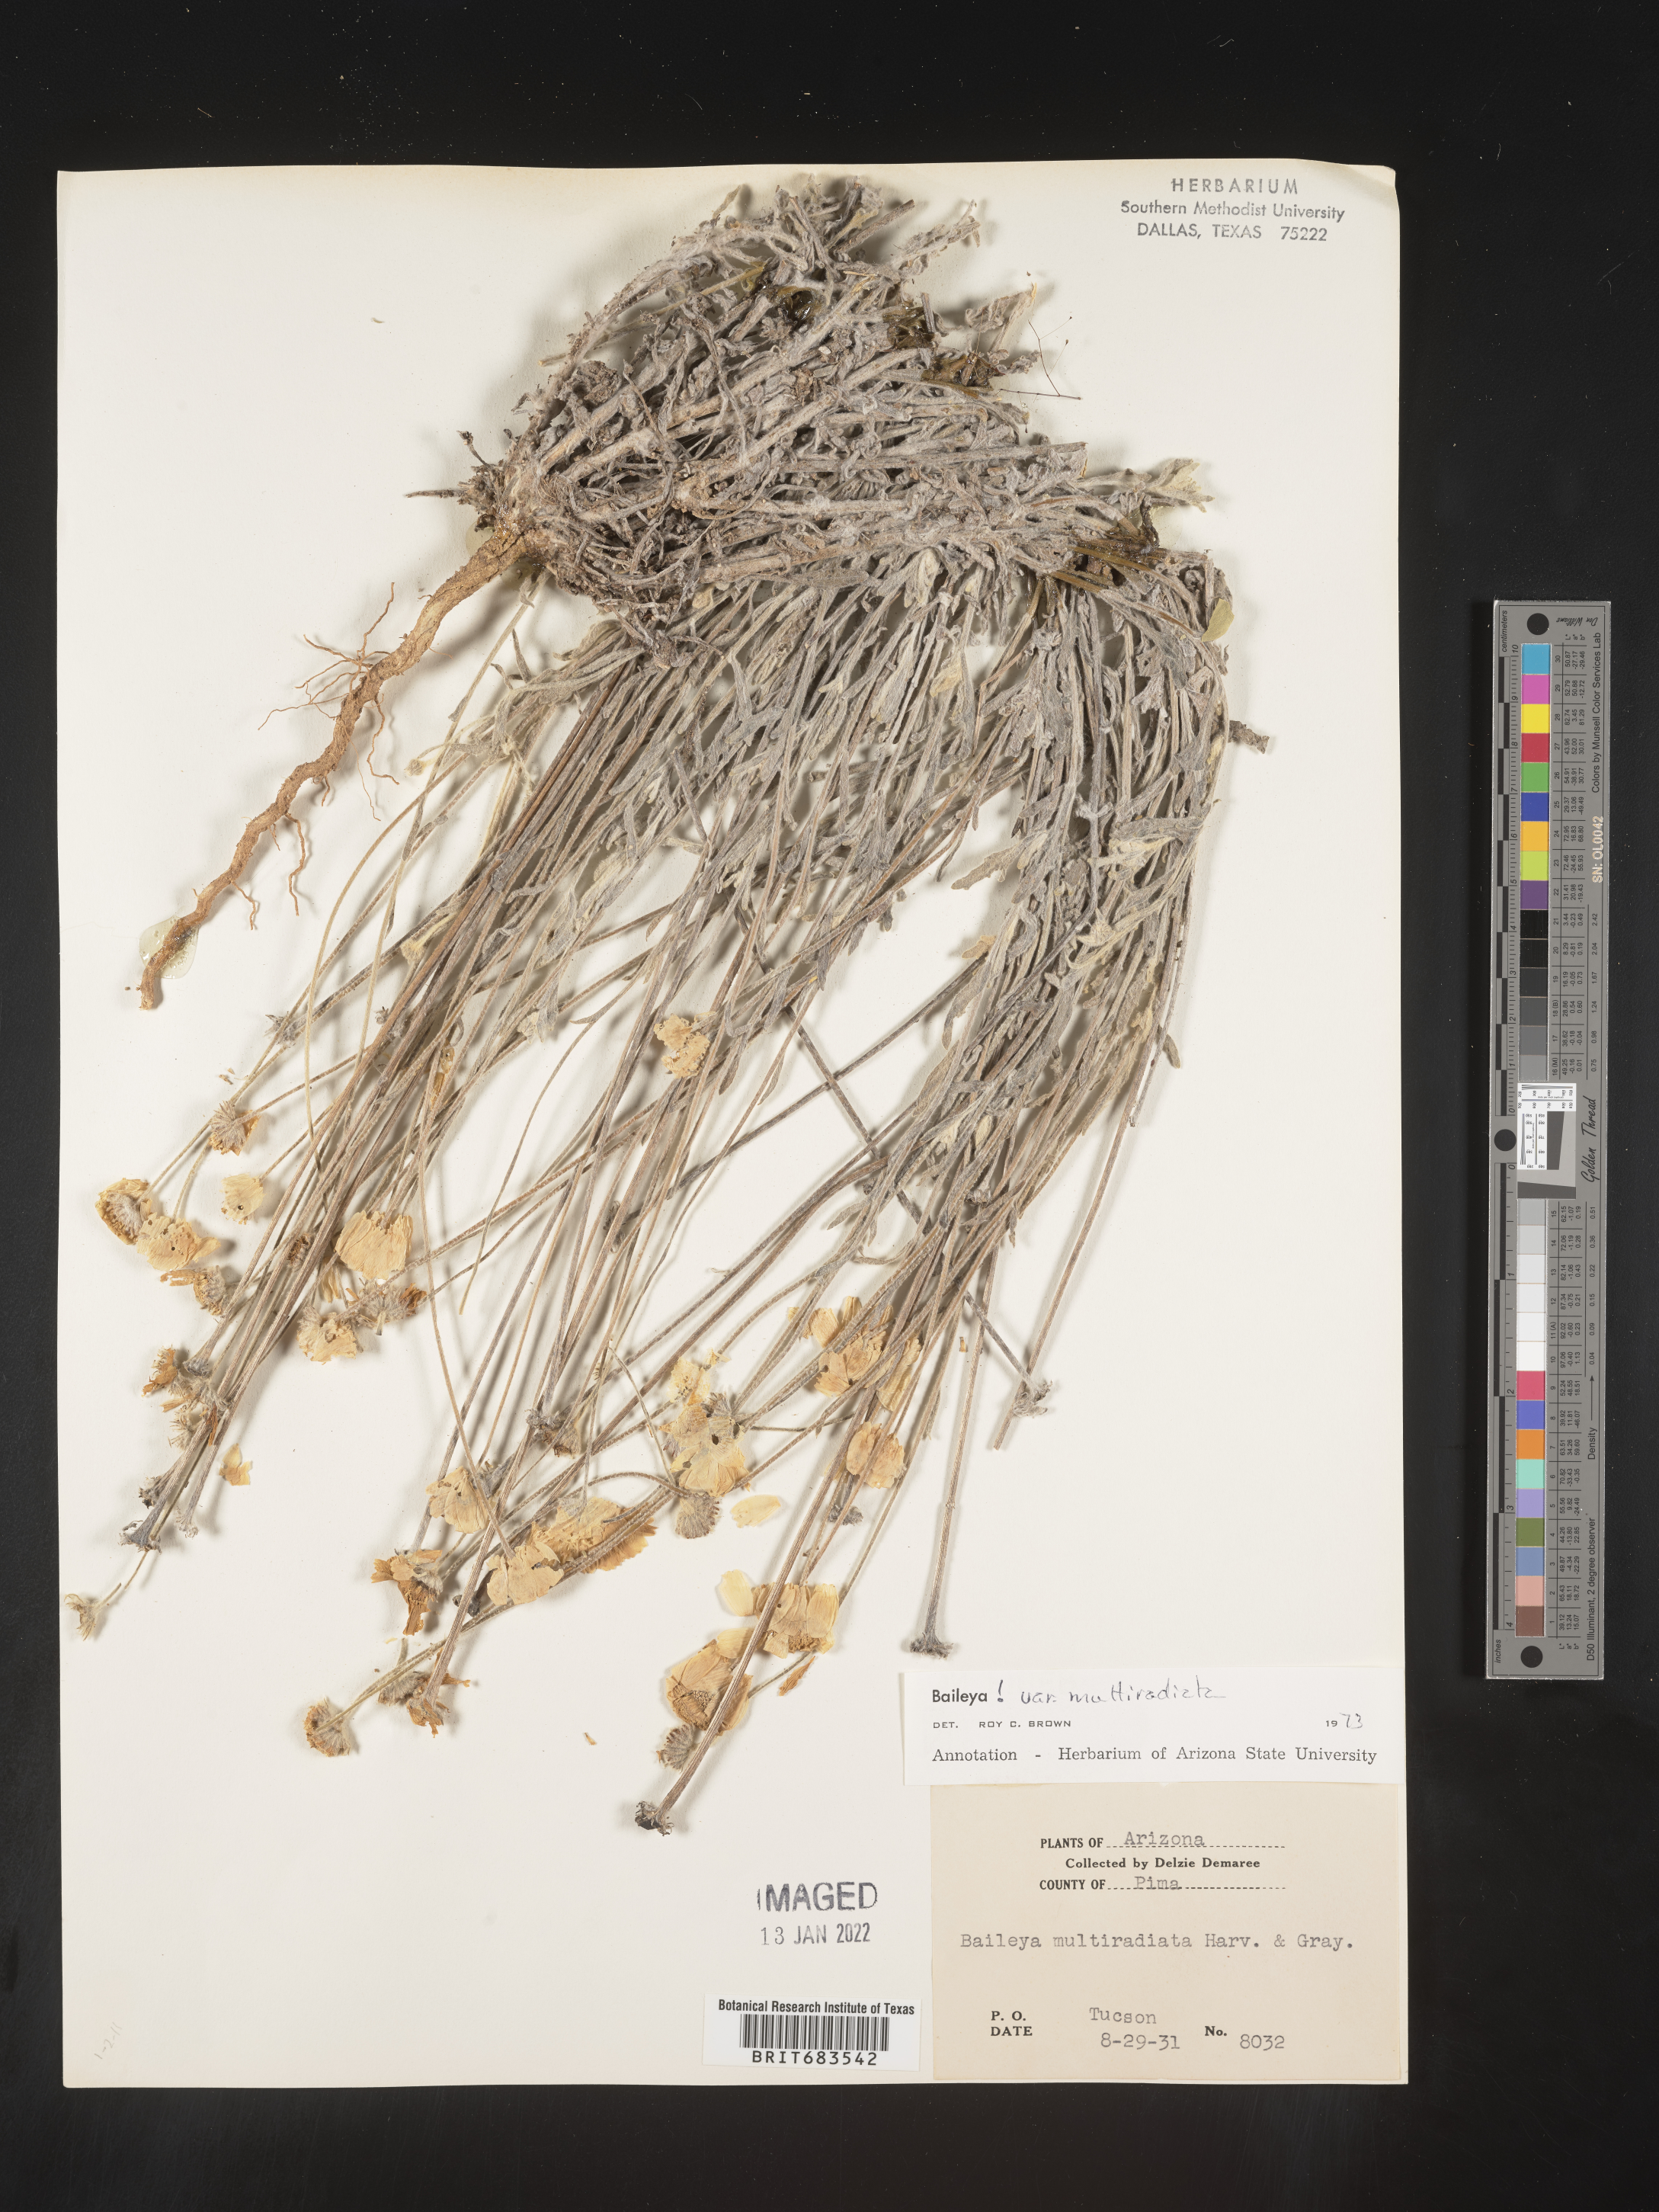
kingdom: Plantae
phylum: Tracheophyta
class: Magnoliopsida
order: Asterales
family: Asteraceae
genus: Baileya
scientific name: Baileya multiradiata
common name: Desert-marigold
